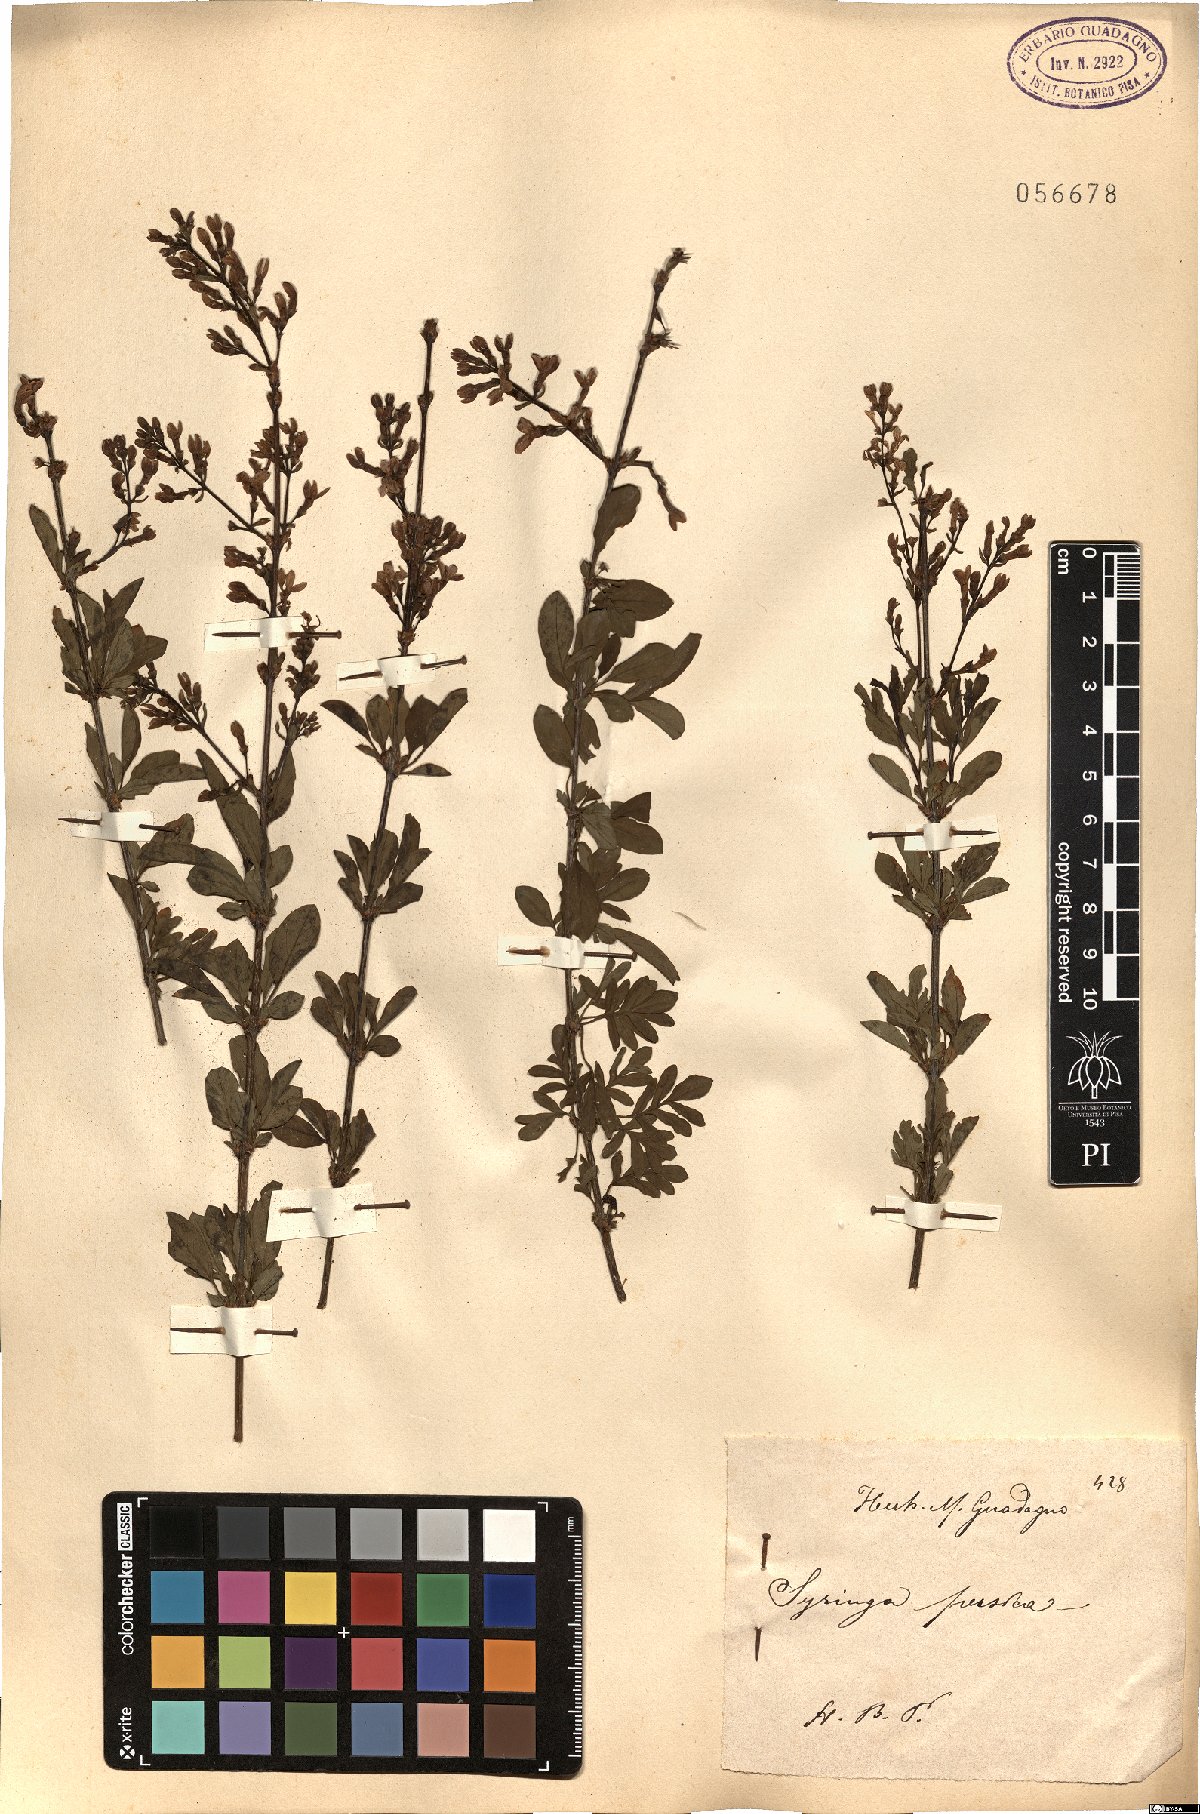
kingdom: Plantae
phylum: Tracheophyta
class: Magnoliopsida
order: Lamiales
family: Oleaceae
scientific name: Oleaceae
